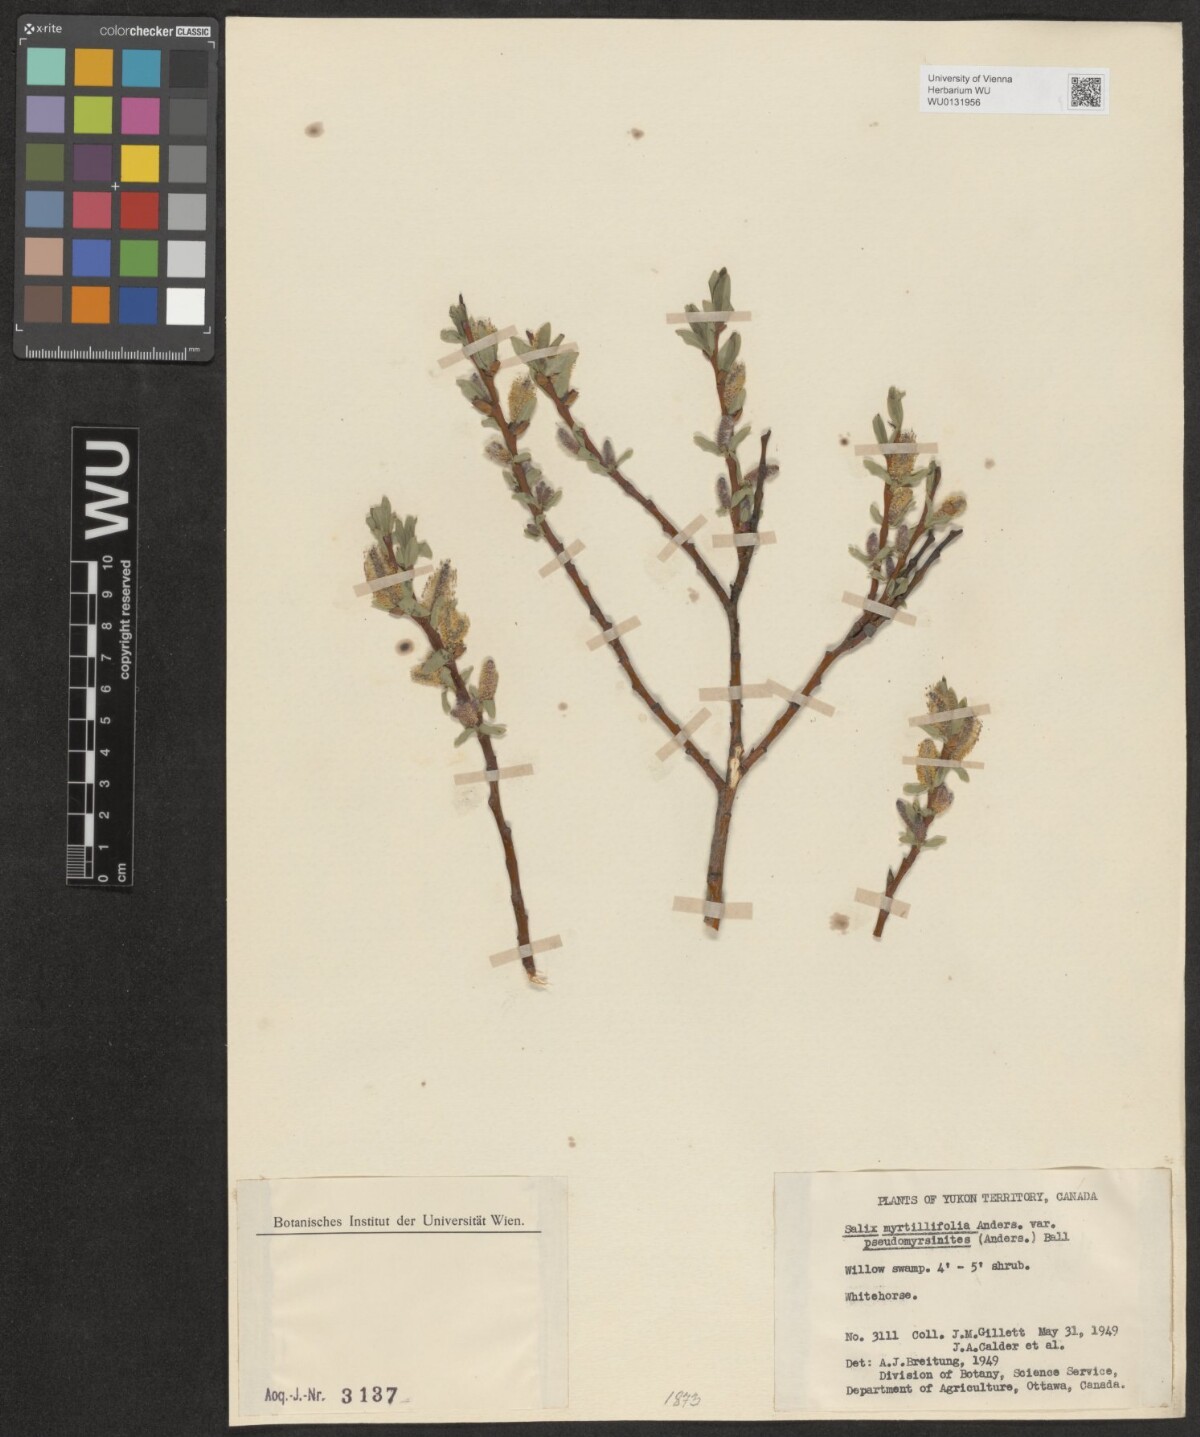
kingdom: Plantae
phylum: Tracheophyta
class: Magnoliopsida
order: Malpighiales
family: Salicaceae
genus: Salix
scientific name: Salix myrtillifolia
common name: Bilberry willow
